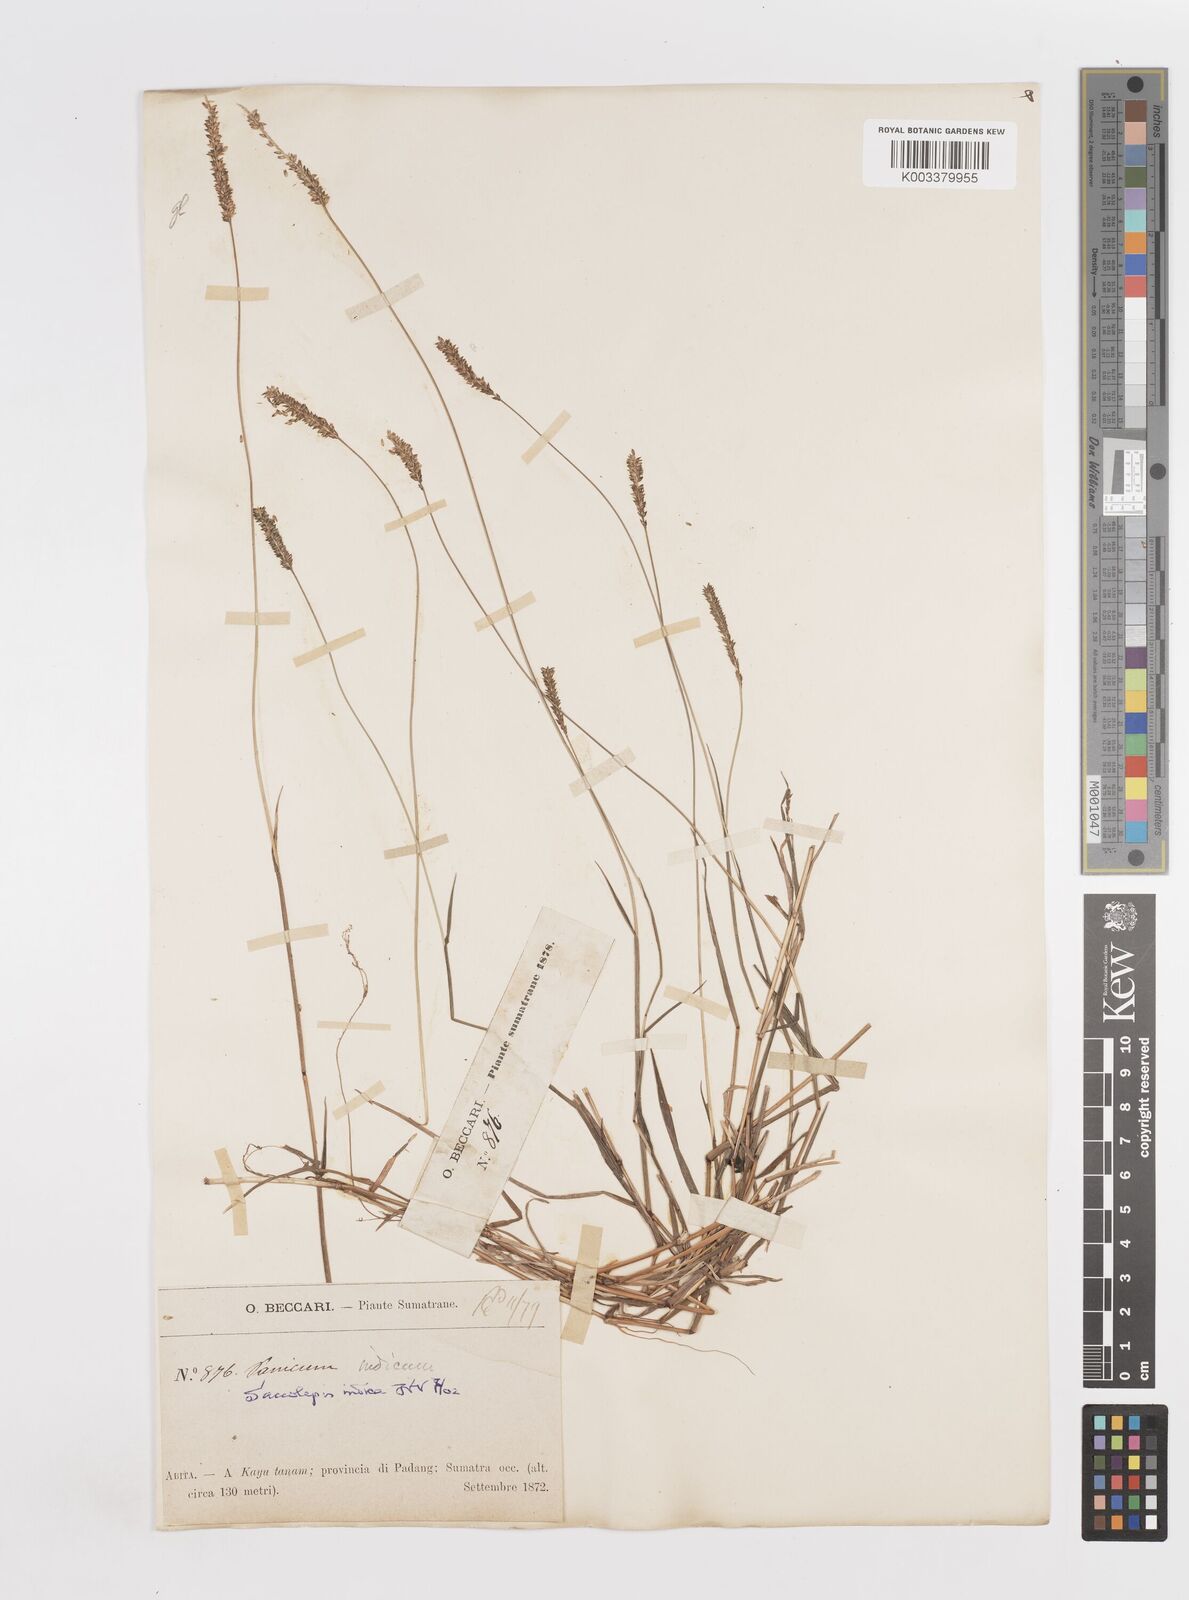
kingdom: Plantae
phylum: Tracheophyta
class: Liliopsida
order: Poales
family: Poaceae
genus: Sacciolepis
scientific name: Sacciolepis indica
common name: Glenwoodgrass
